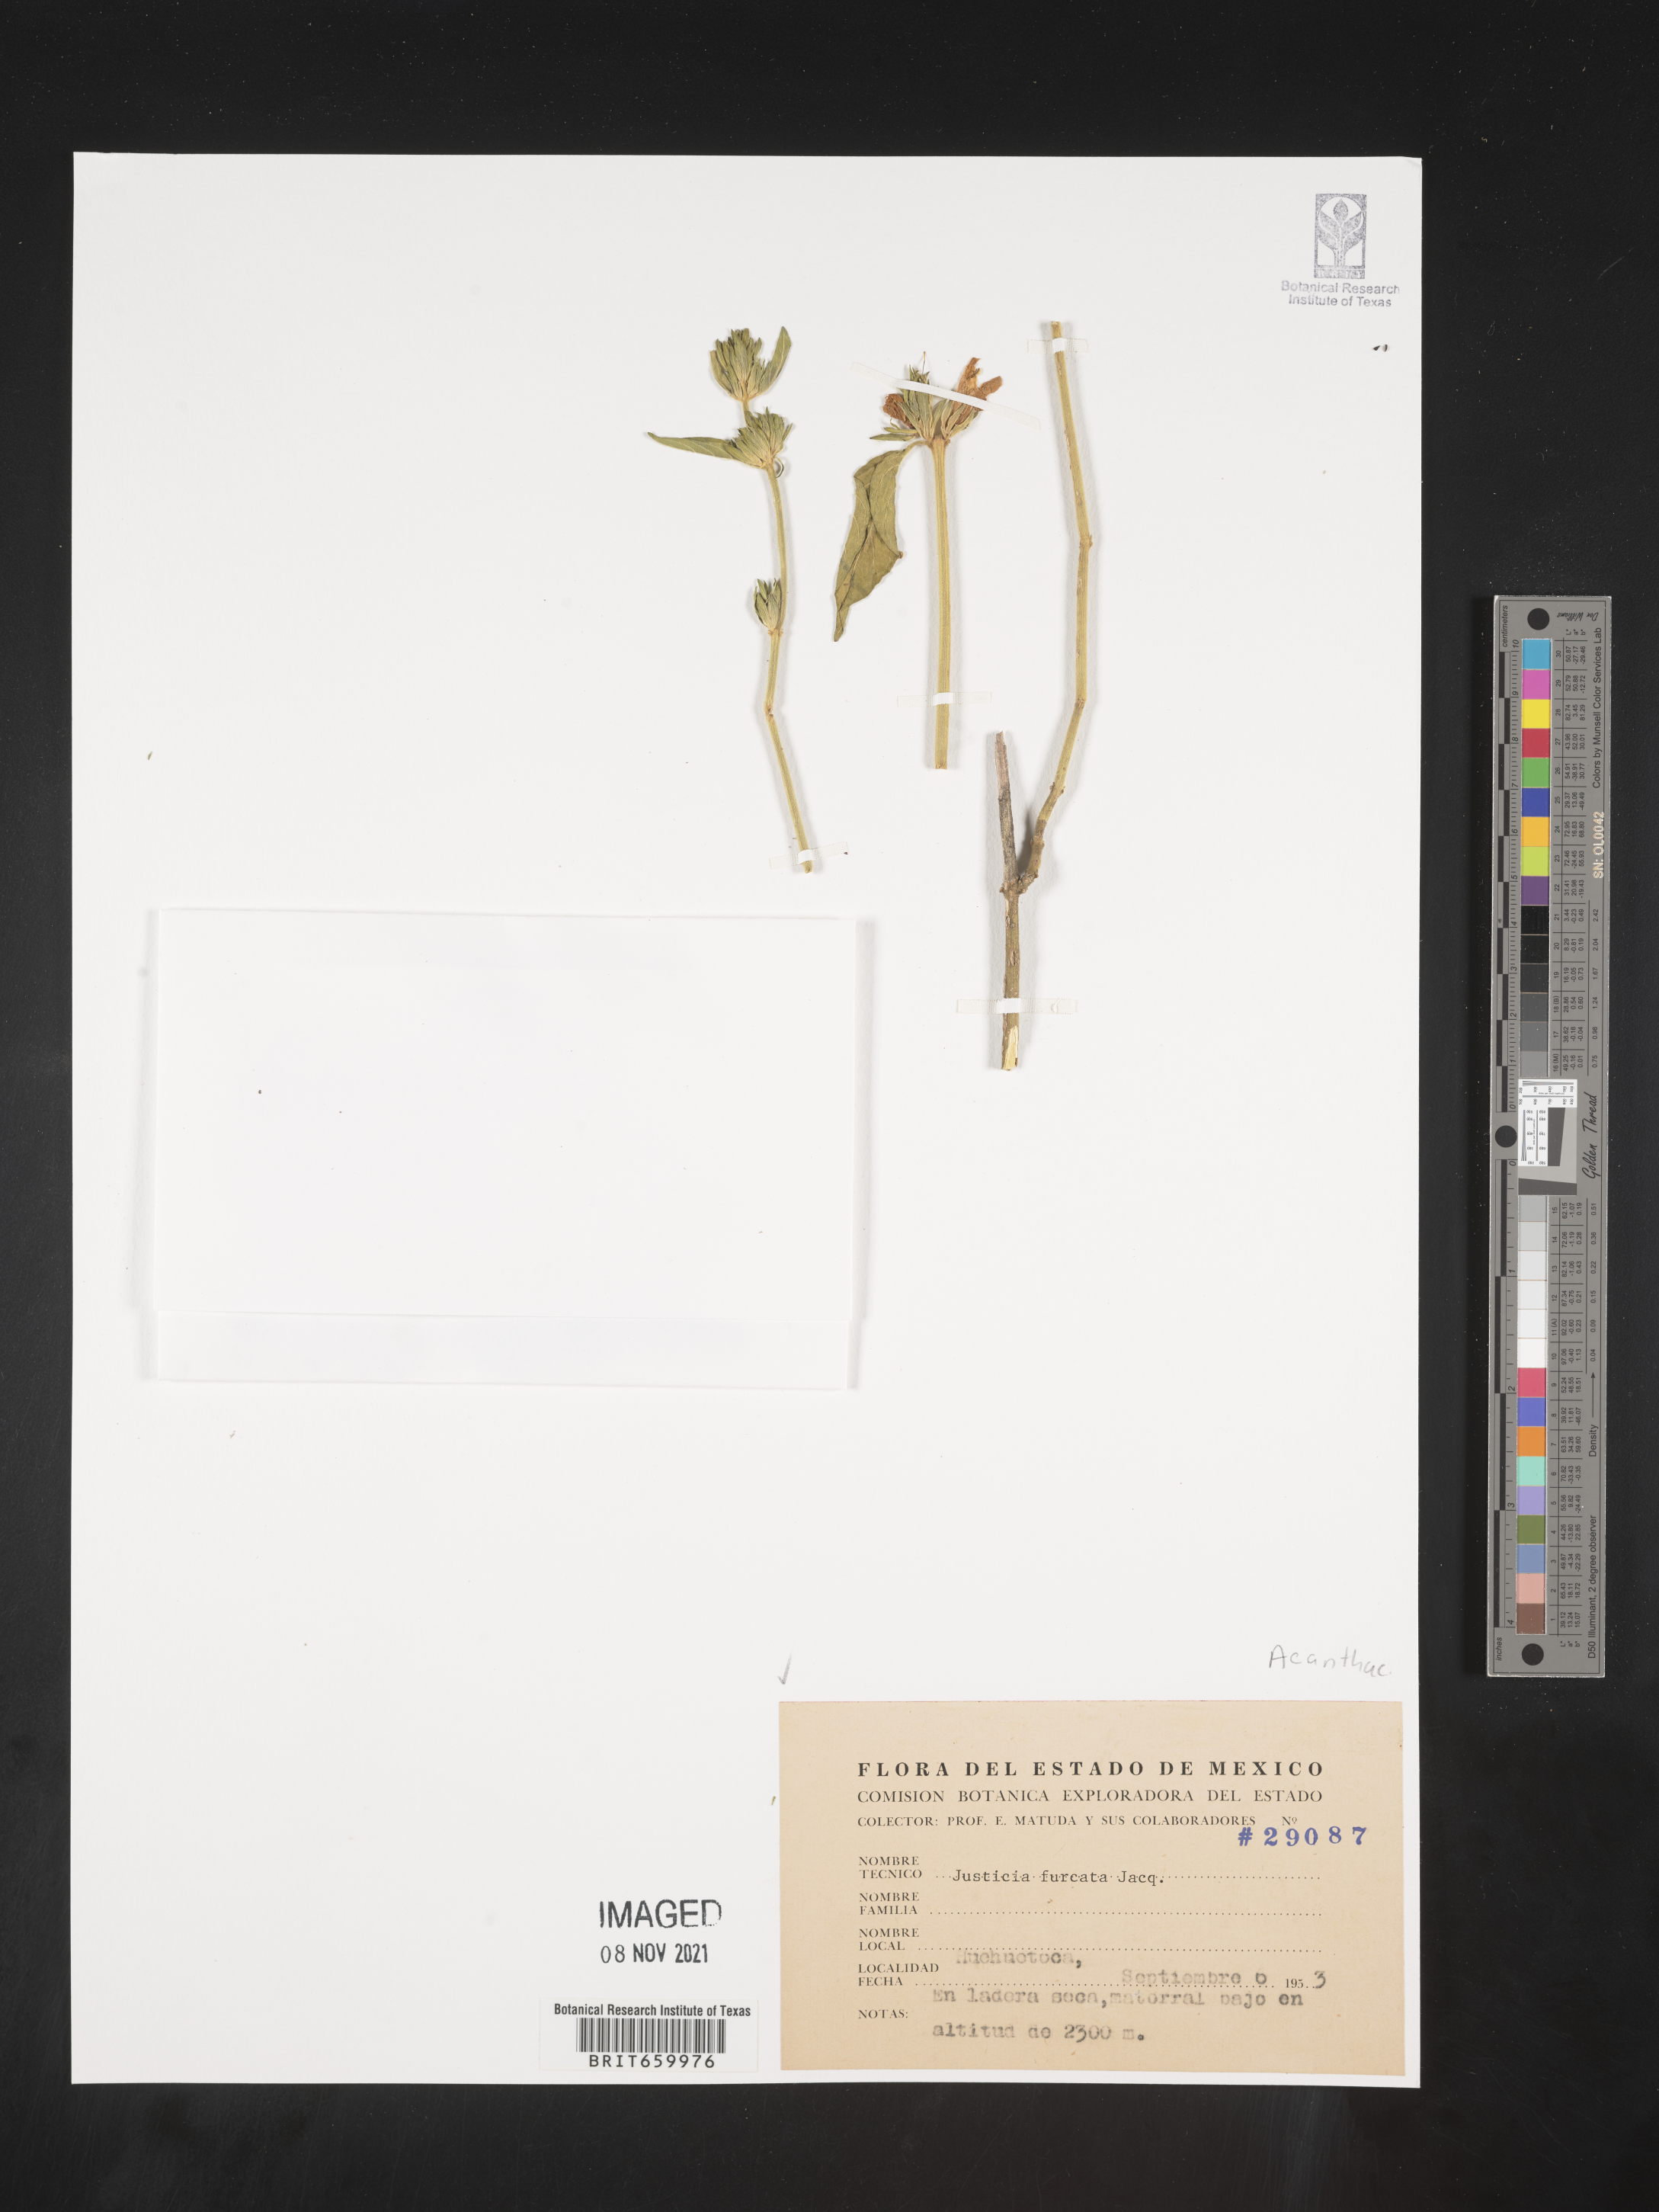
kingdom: Plantae
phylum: Tracheophyta
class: Magnoliopsida
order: Lamiales
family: Acanthaceae
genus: Justicia
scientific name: Justicia
